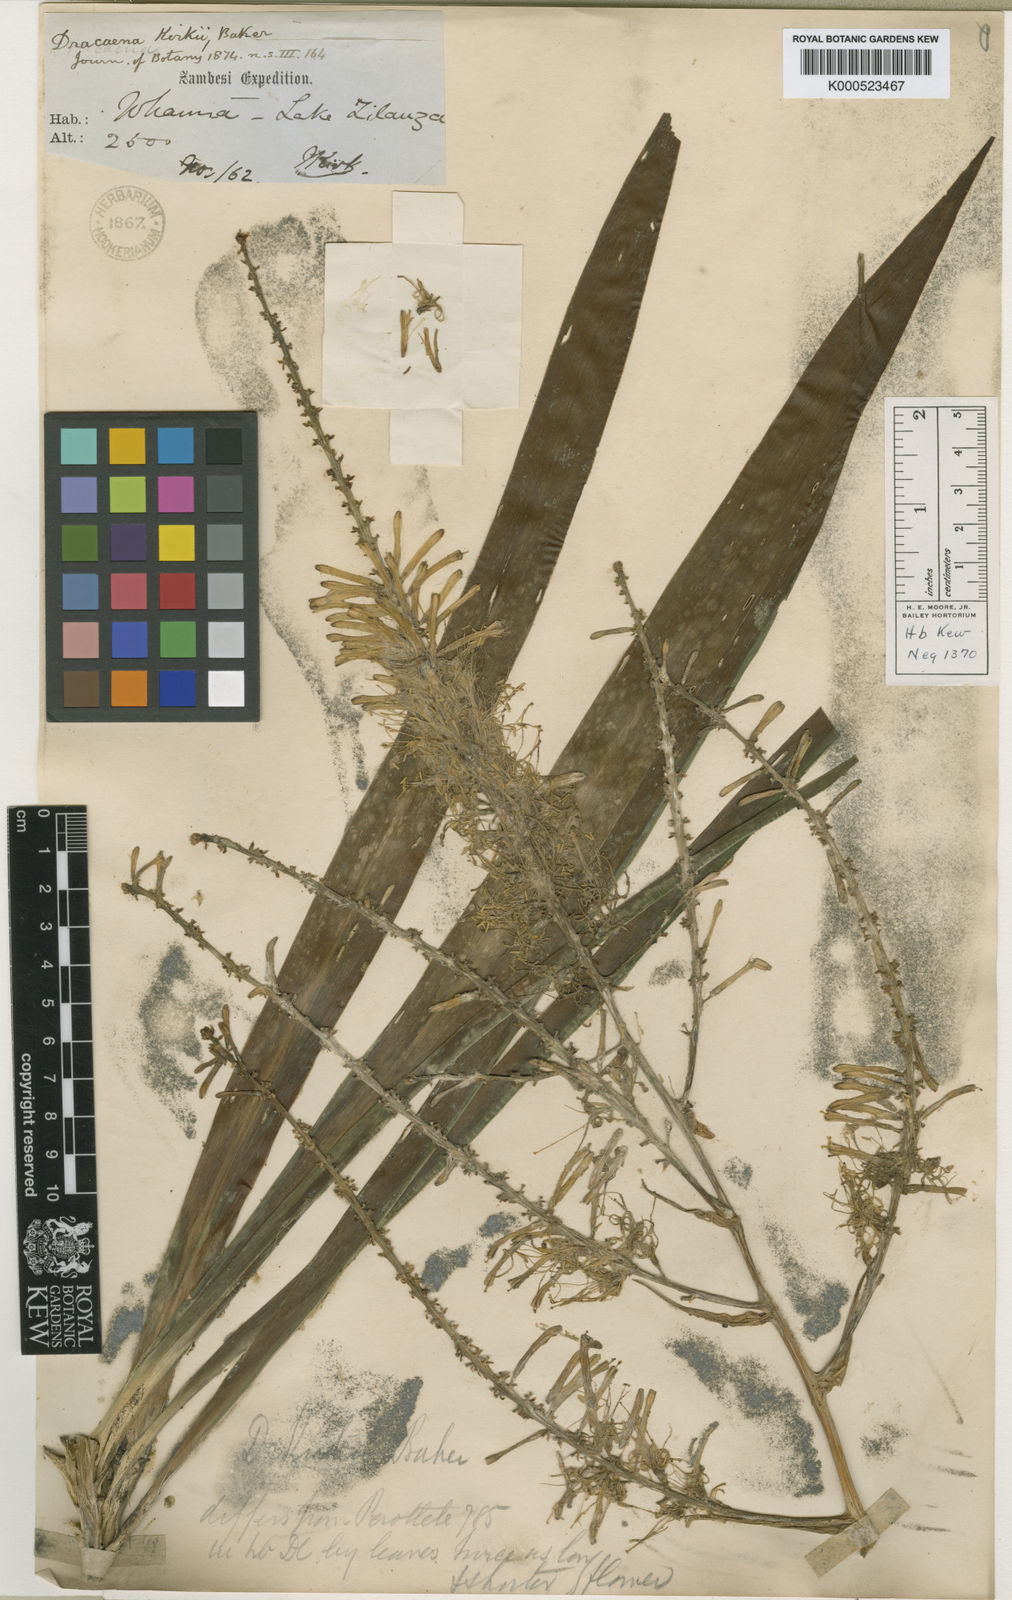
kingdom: Plantae
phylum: Tracheophyta
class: Liliopsida
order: Asparagales
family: Asparagaceae
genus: Dracaena
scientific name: Dracaena kirkii
